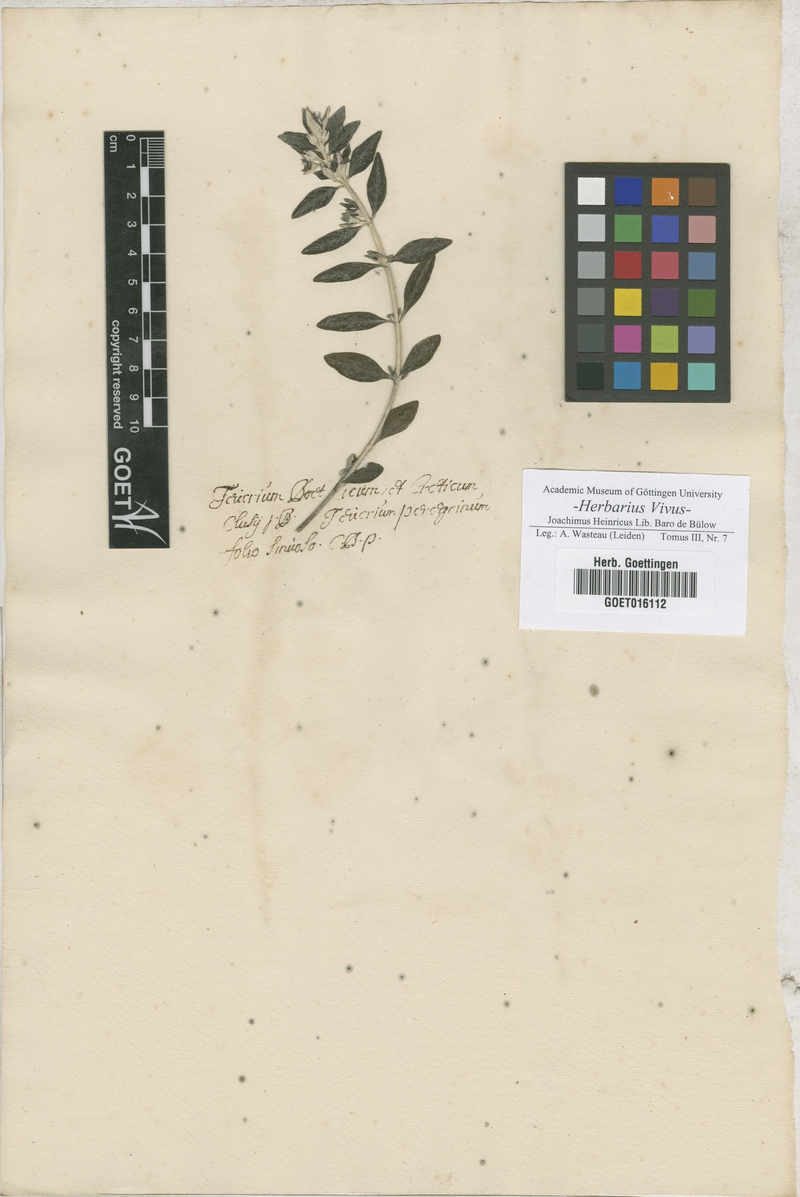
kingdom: Plantae
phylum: Tracheophyta
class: Magnoliopsida
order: Lamiales
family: Lamiaceae
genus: Teucrium
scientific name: Teucrium fruticans
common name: Shrubby germander
